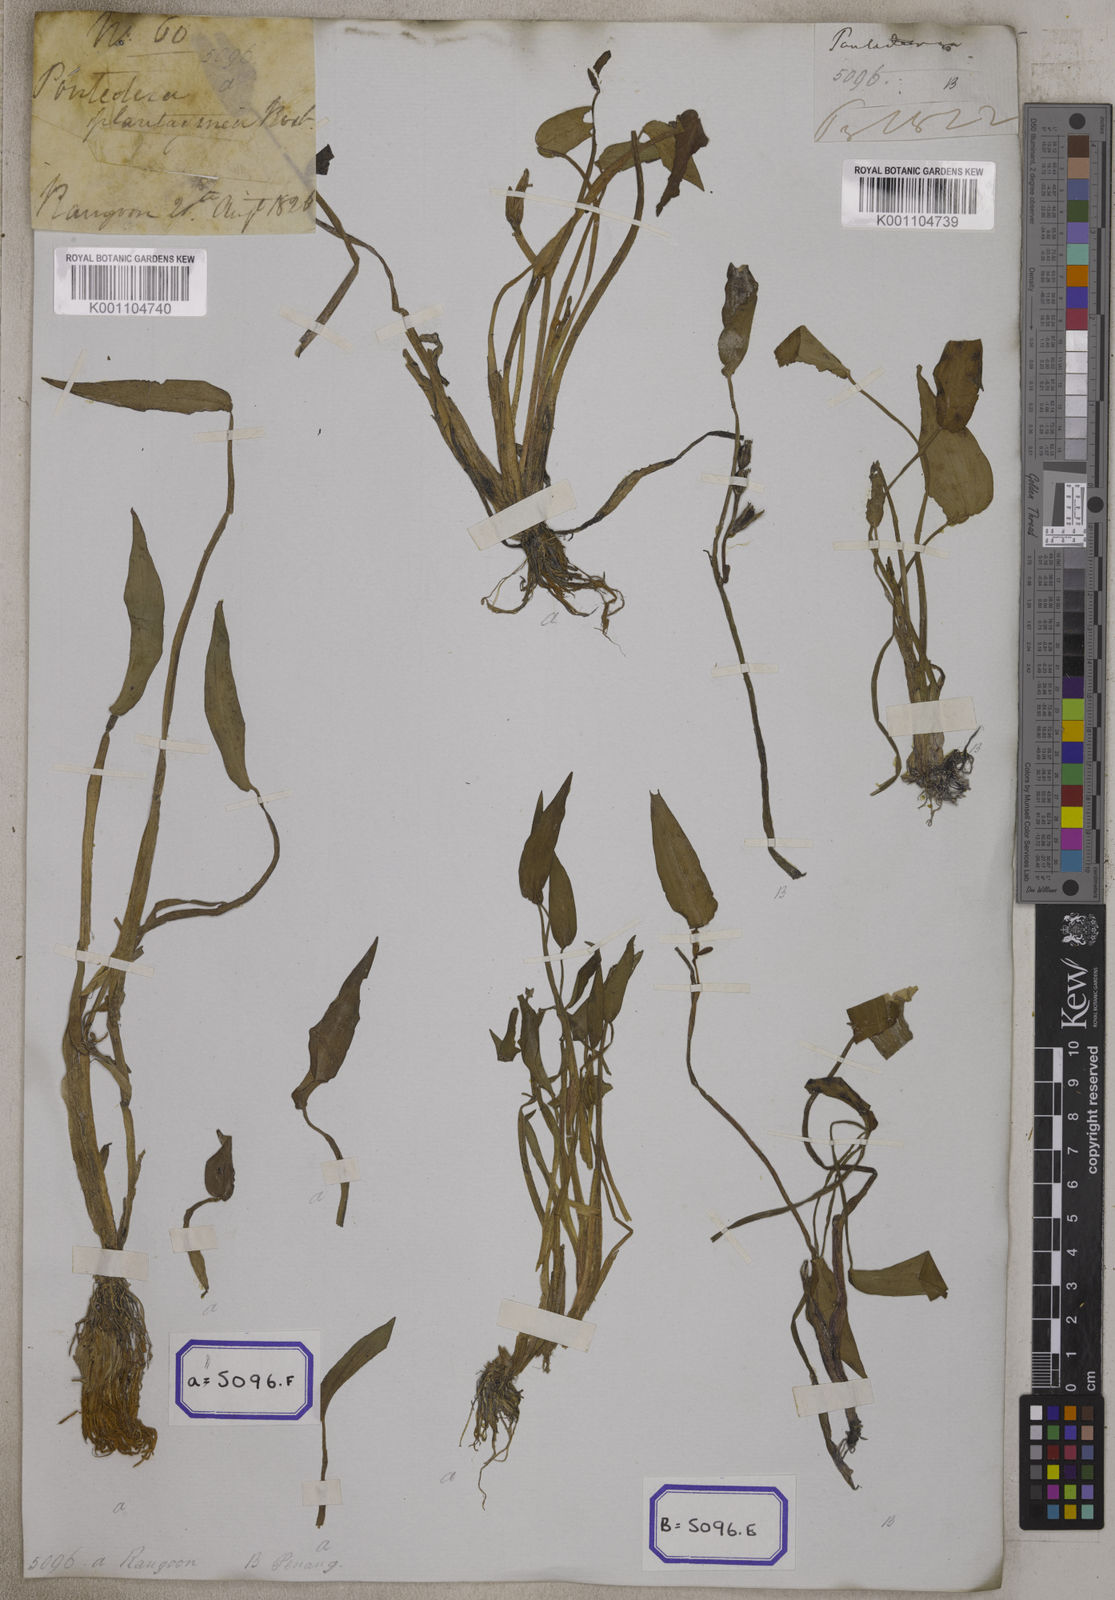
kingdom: Plantae
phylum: Tracheophyta
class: Liliopsida
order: Commelinales
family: Pontederiaceae
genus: Pontederia
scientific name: Pontederia plantaginea
